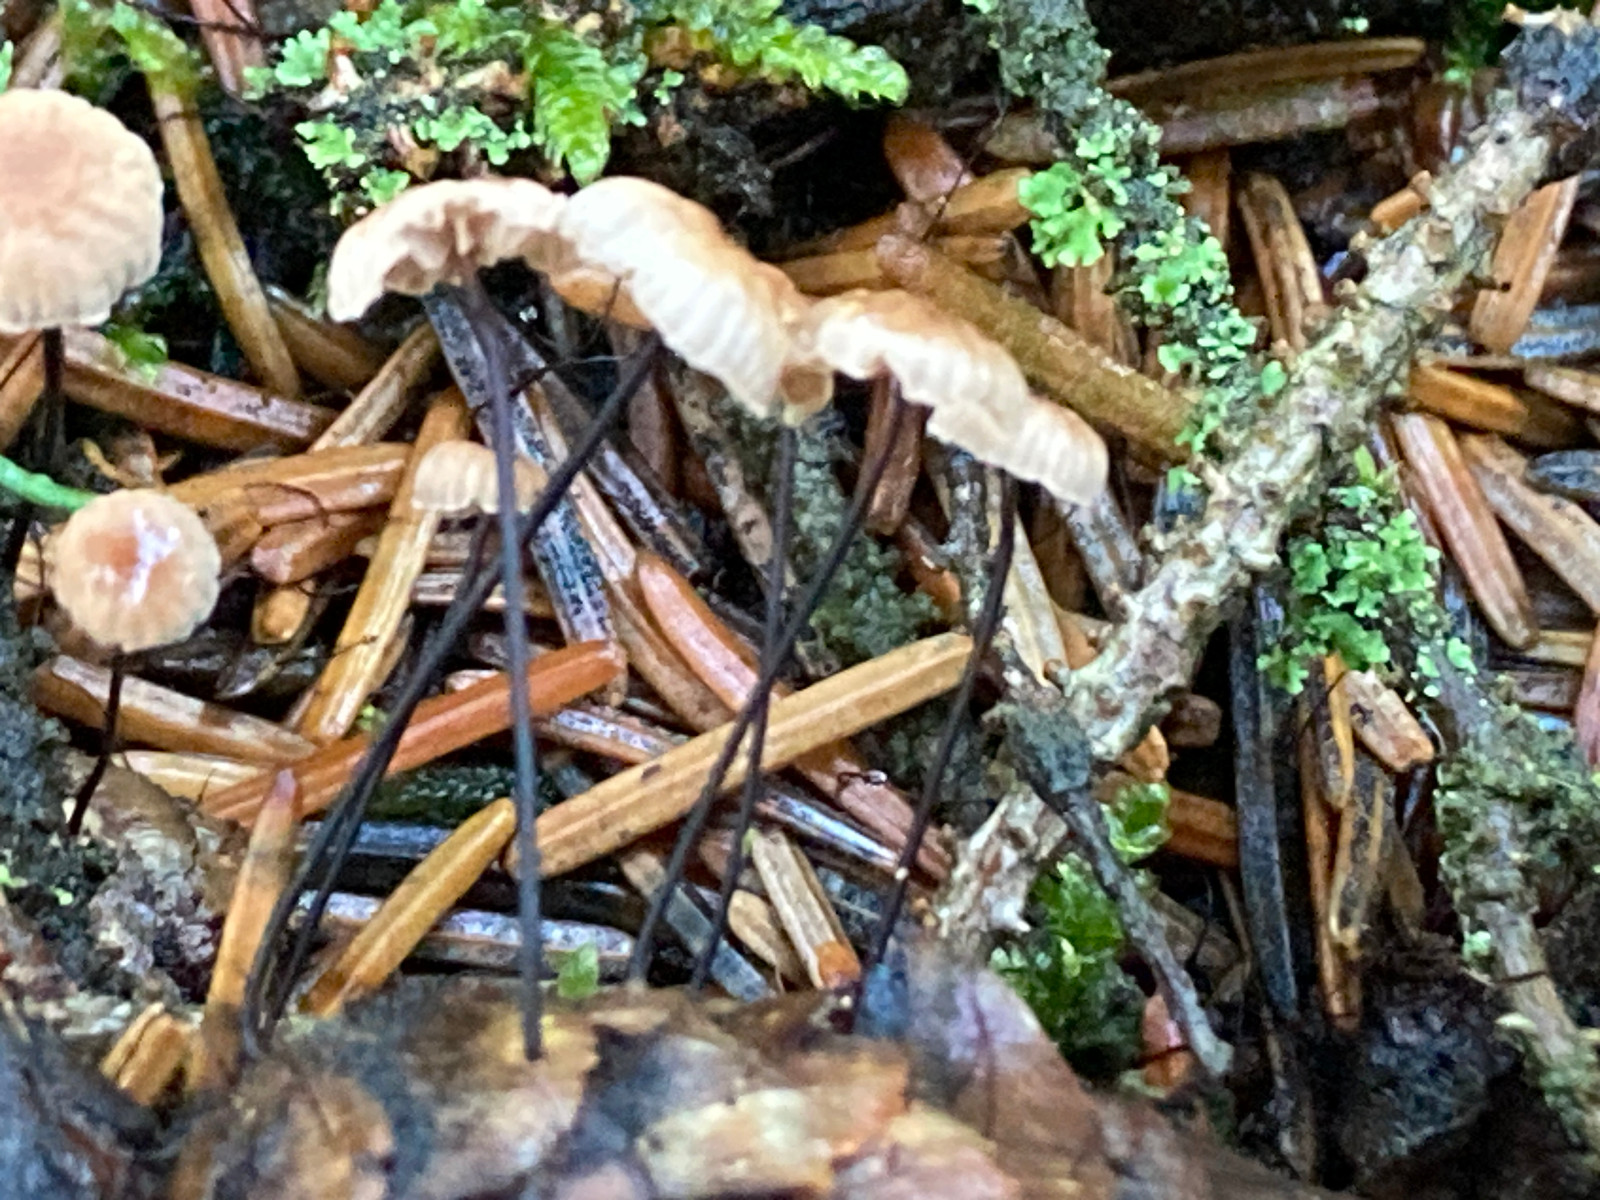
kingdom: Fungi
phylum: Basidiomycota
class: Agaricomycetes
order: Agaricales
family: Omphalotaceae
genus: Gymnopus
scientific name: Gymnopus androsaceus
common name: trådstokket fladhat
